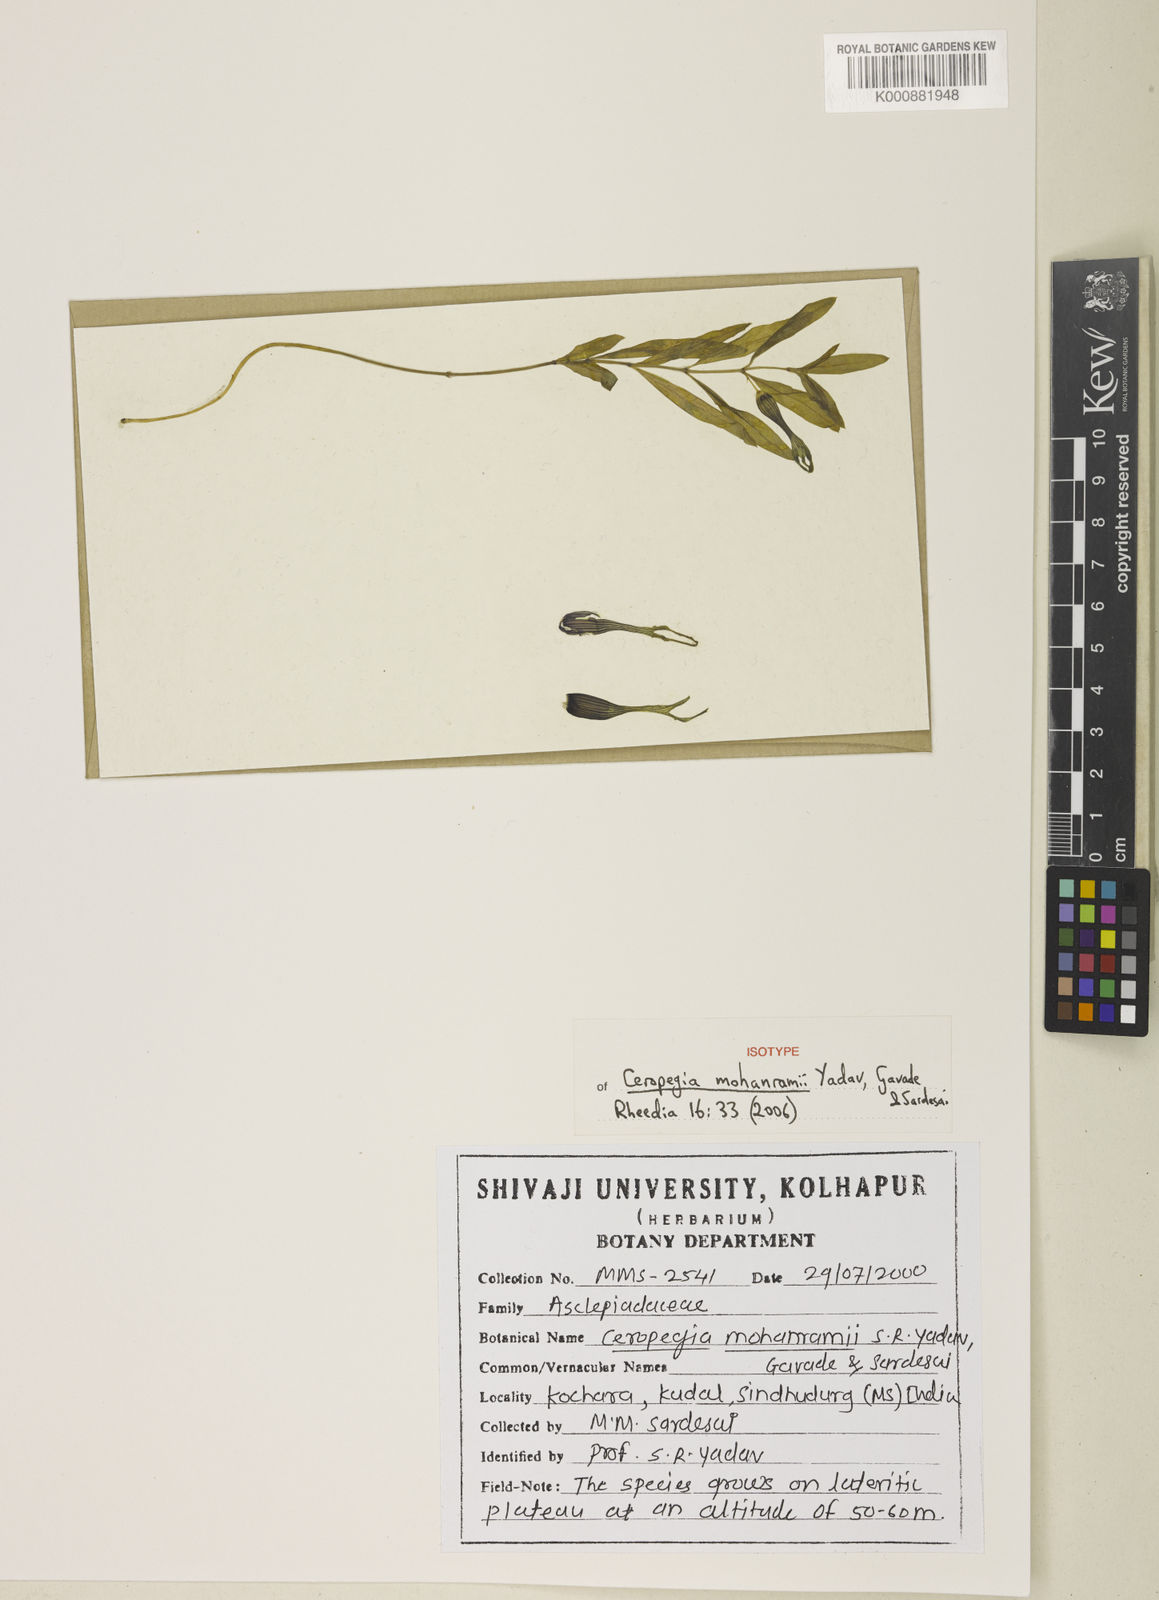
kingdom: Plantae
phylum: Tracheophyta
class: Magnoliopsida
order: Gentianales
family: Apocynaceae
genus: Ceropegia
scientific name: Ceropegia attenuata
